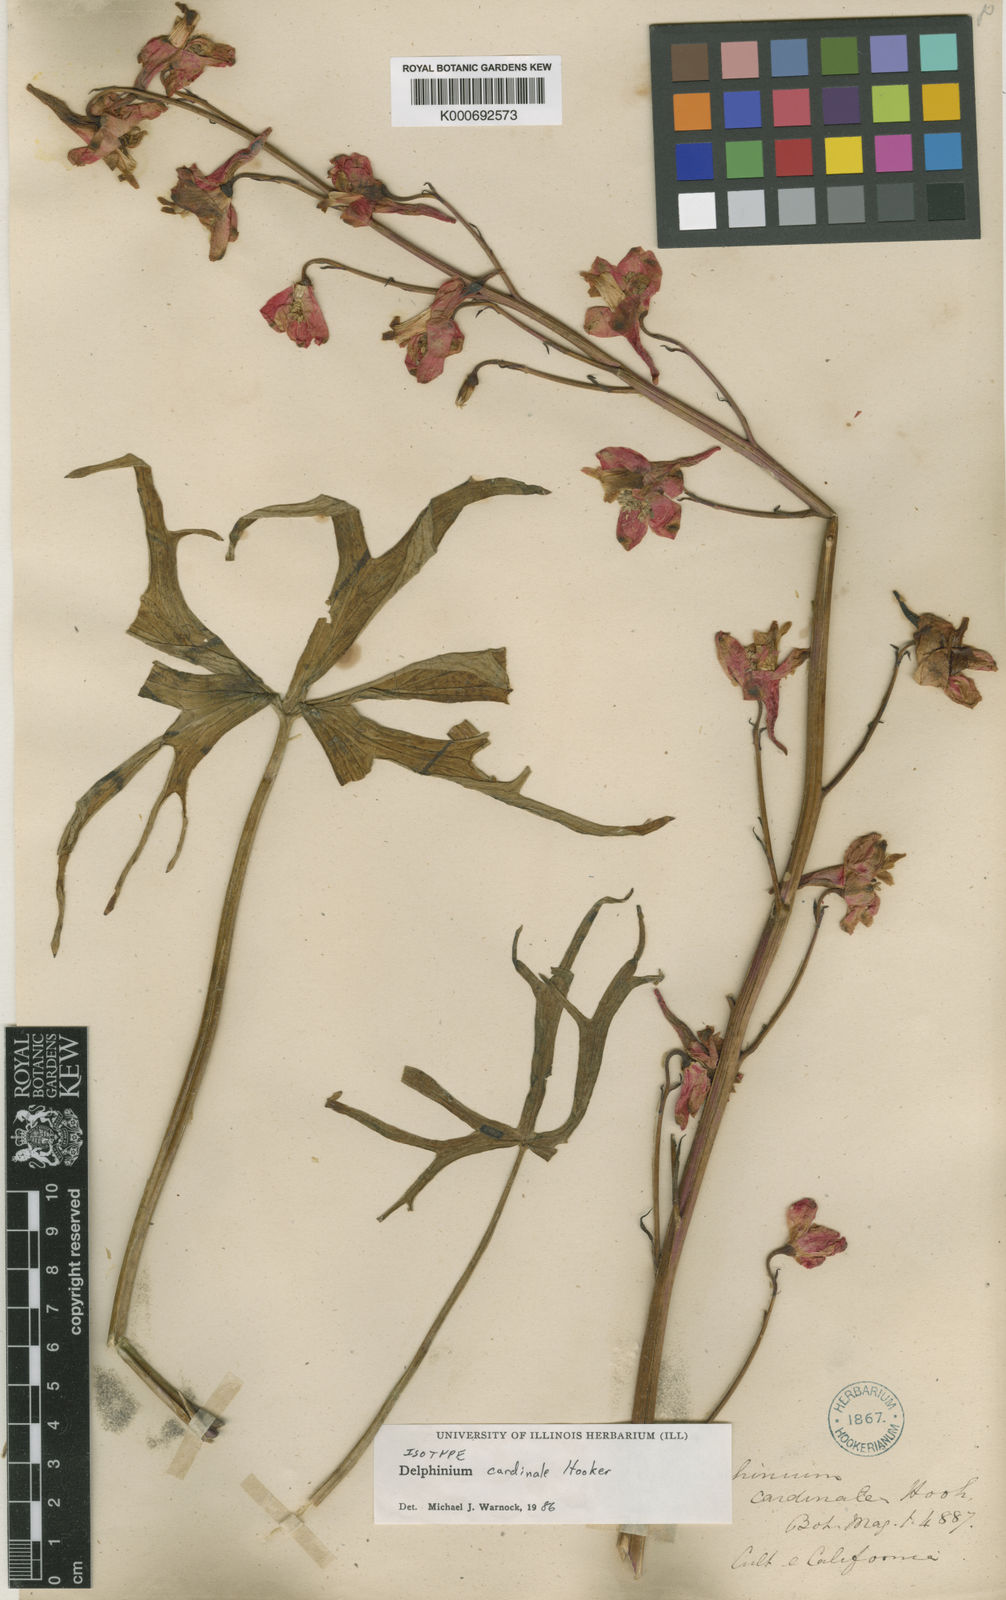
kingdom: Plantae
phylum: Tracheophyta
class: Magnoliopsida
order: Ranunculales
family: Ranunculaceae
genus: Delphinium
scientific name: Delphinium cardinale
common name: Scarlet larkspur
